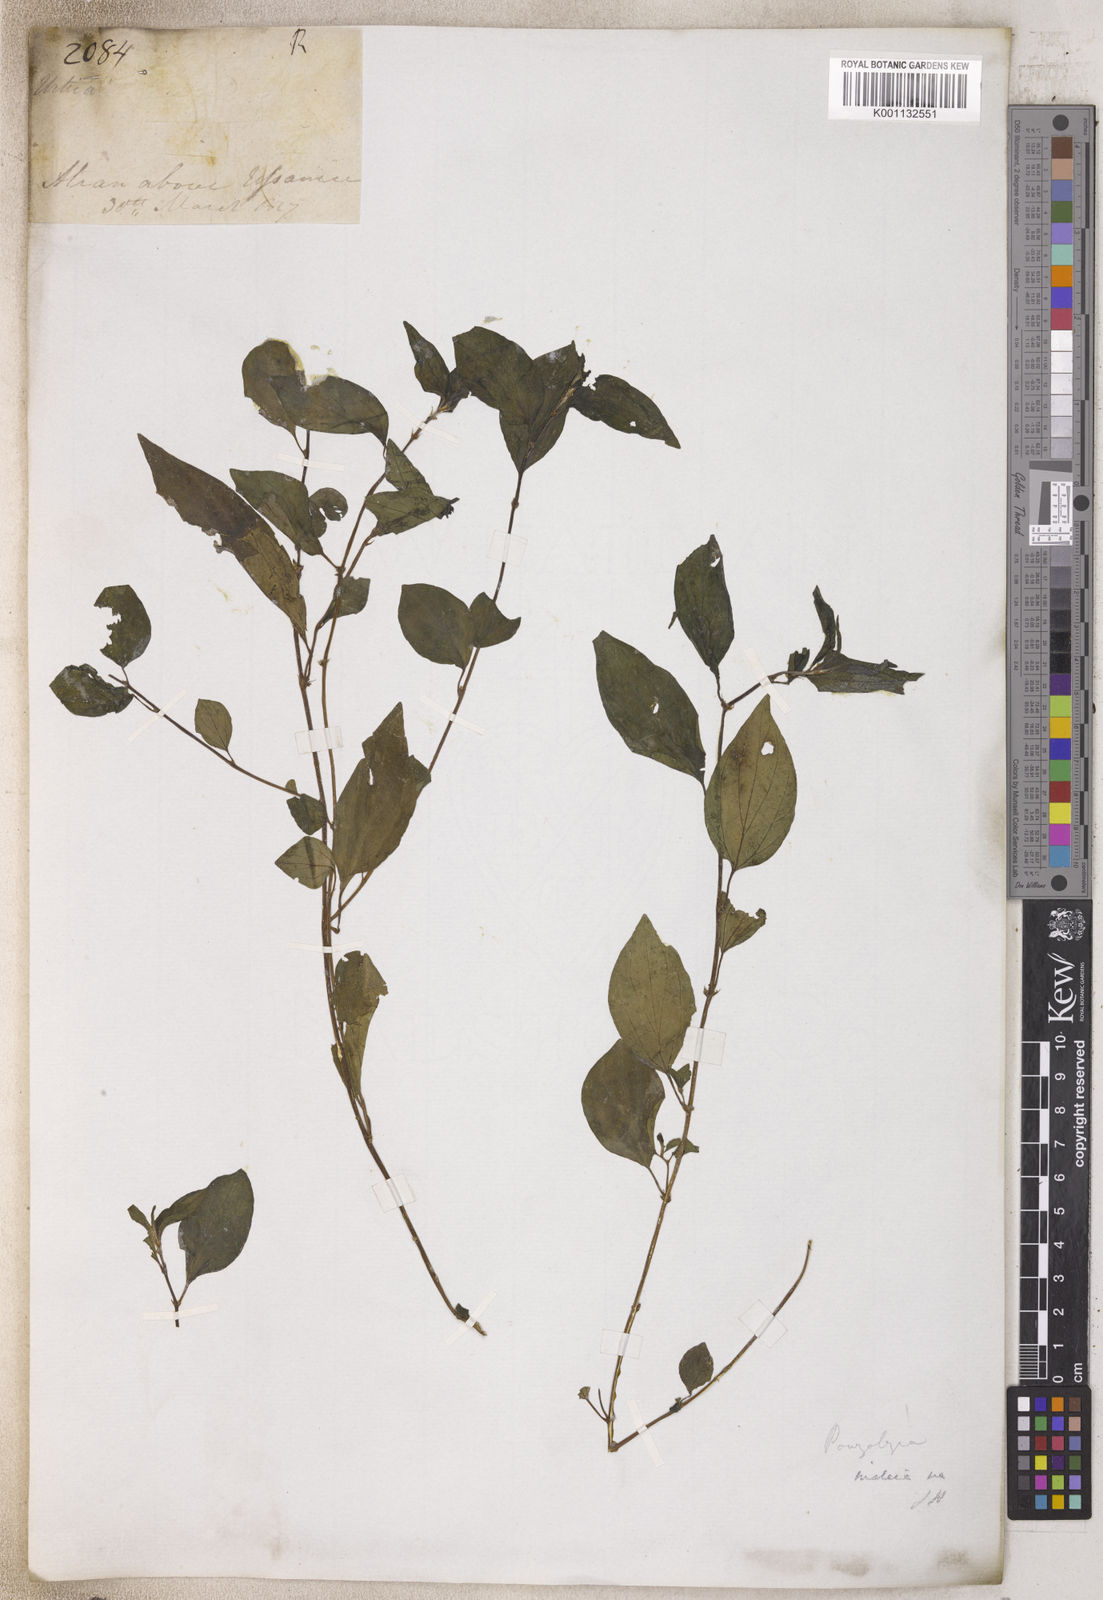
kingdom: Plantae
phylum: Tracheophyta
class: Magnoliopsida
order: Rosales
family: Urticaceae
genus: Pouzolzia
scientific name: Pouzolzia
